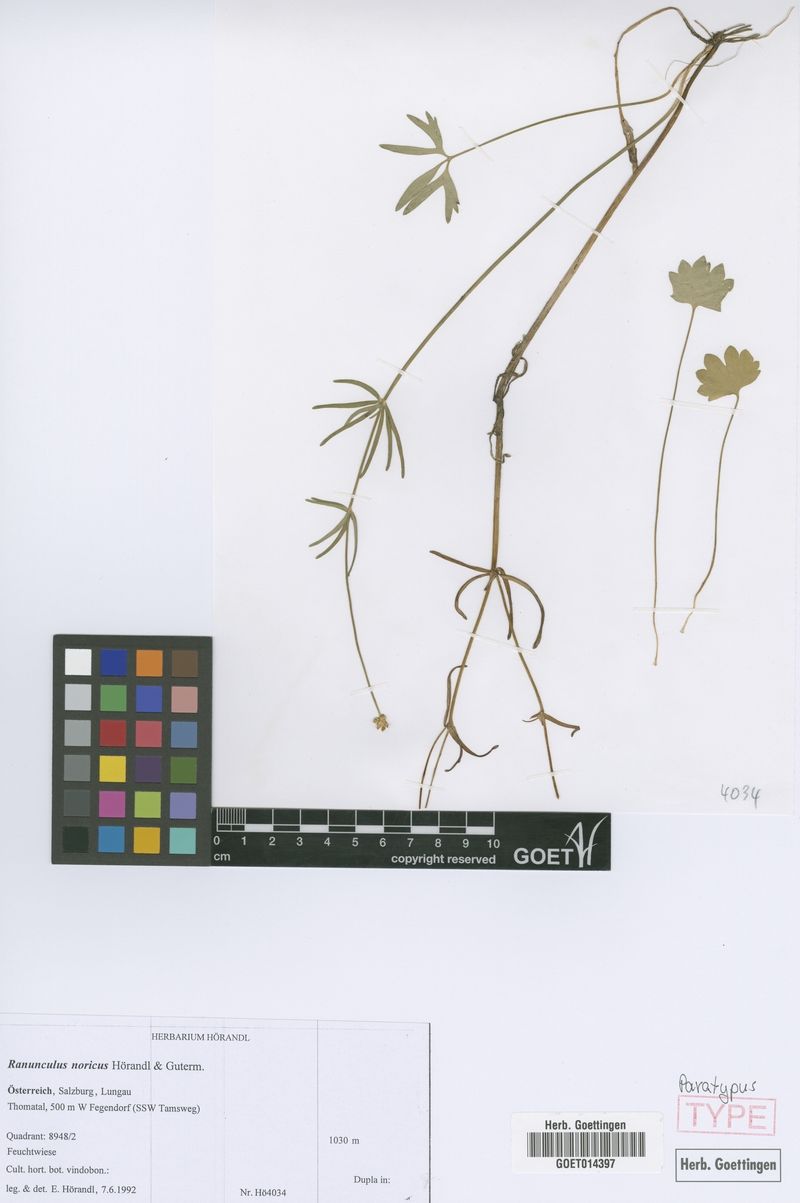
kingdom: Plantae
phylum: Tracheophyta
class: Magnoliopsida
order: Ranunculales
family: Ranunculaceae
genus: Ranunculus
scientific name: Ranunculus noricus
